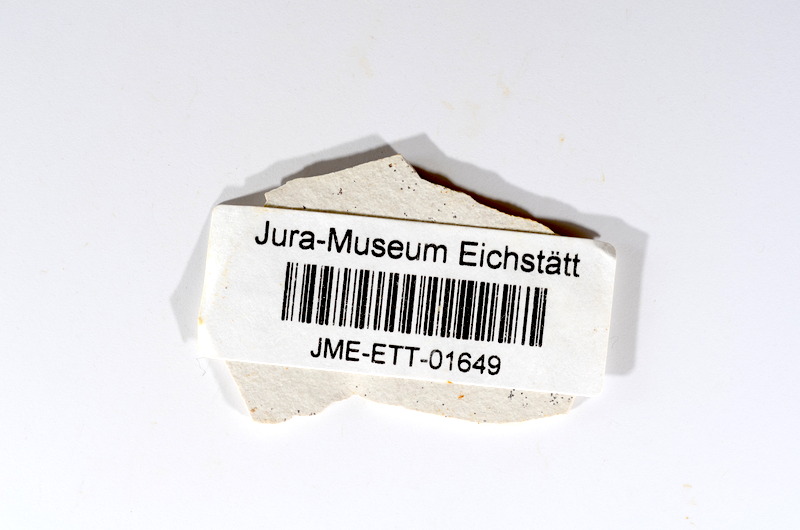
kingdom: Animalia
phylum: Chordata
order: Salmoniformes
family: Orthogonikleithridae
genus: Orthogonikleithrus
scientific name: Orthogonikleithrus hoelli
